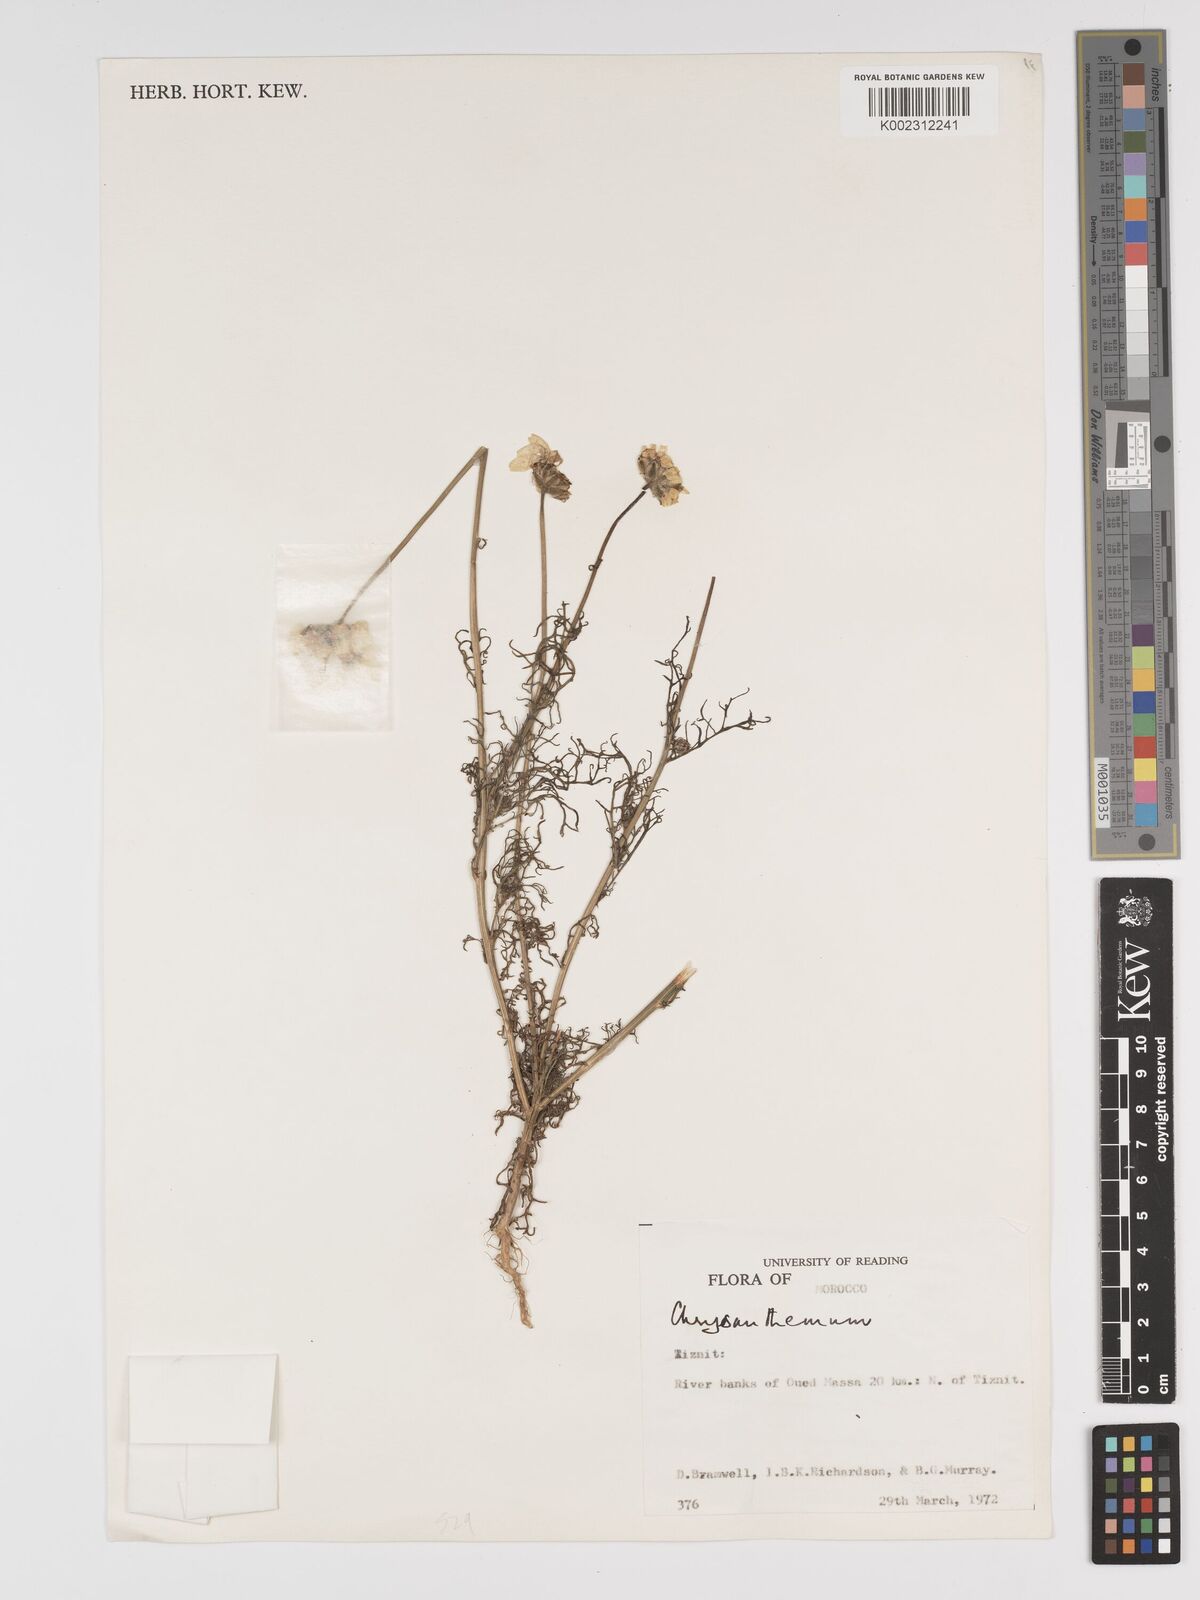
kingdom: Plantae
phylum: Tracheophyta
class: Magnoliopsida
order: Asterales
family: Asteraceae
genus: Tanacetum
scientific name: Tanacetum
